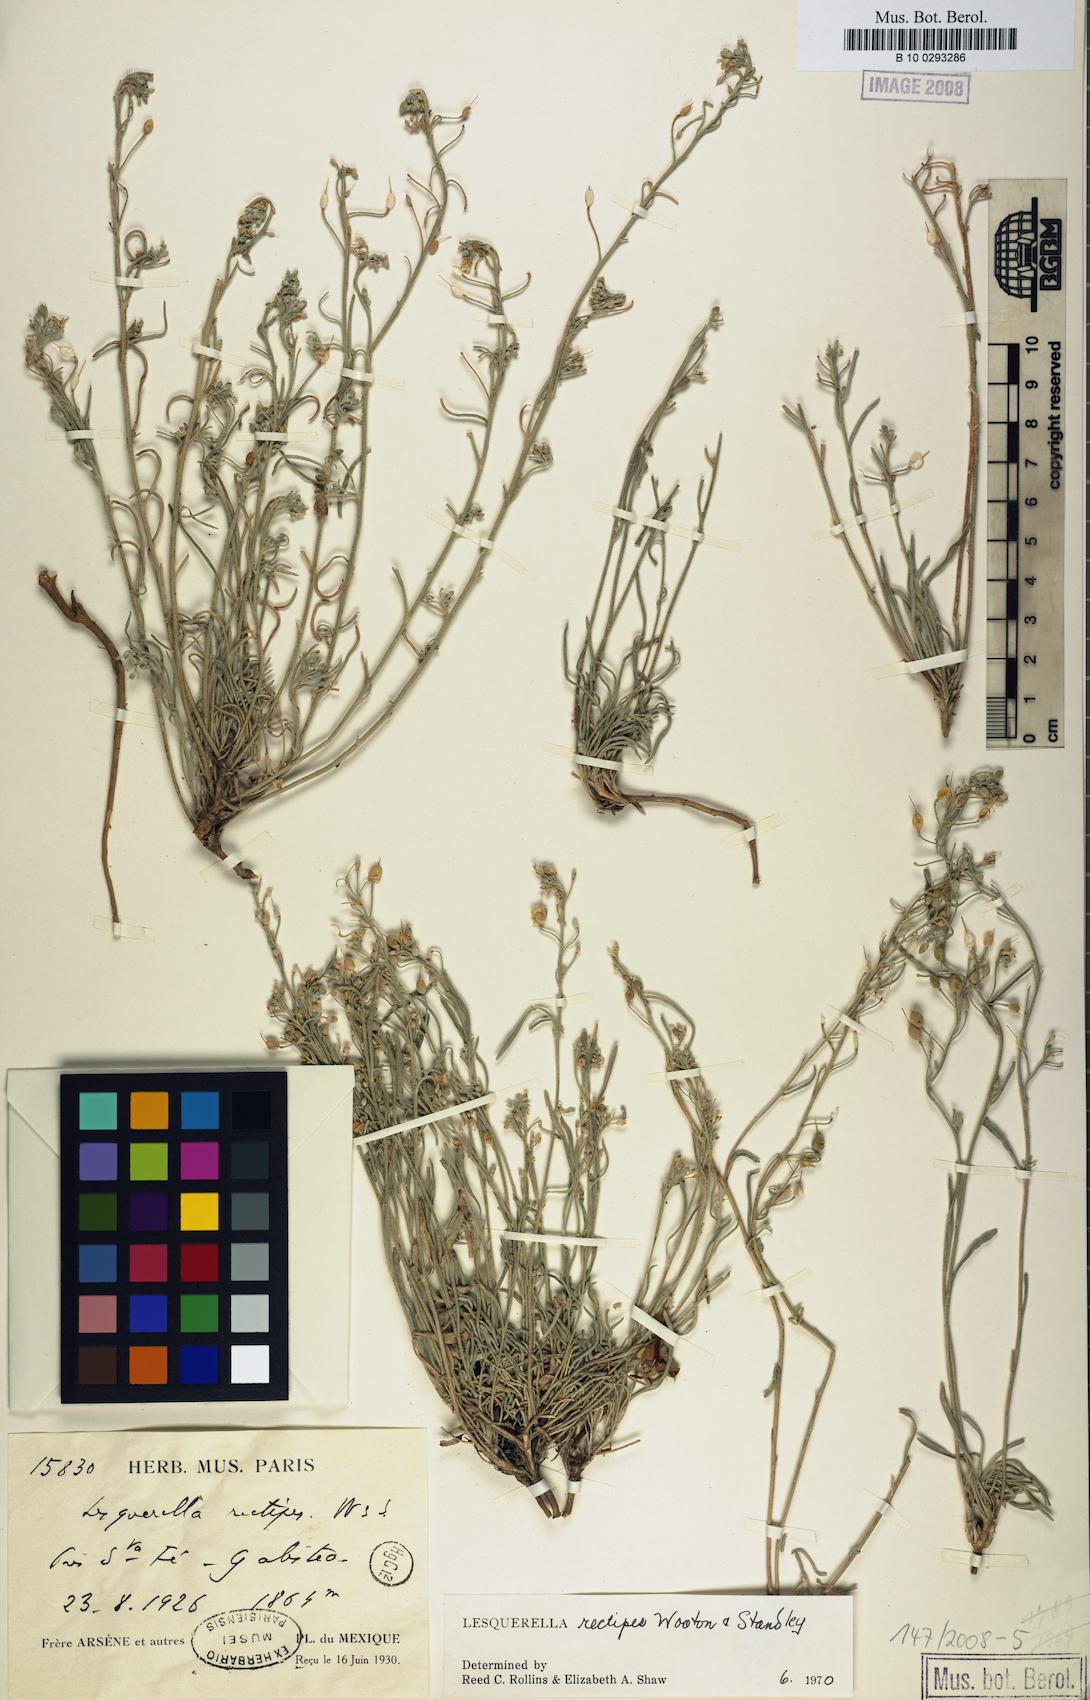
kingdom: Plantae
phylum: Tracheophyta
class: Magnoliopsida
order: Brassicales
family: Brassicaceae
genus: Physaria
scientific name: Physaria rectipes
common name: Colorado bladderpod
